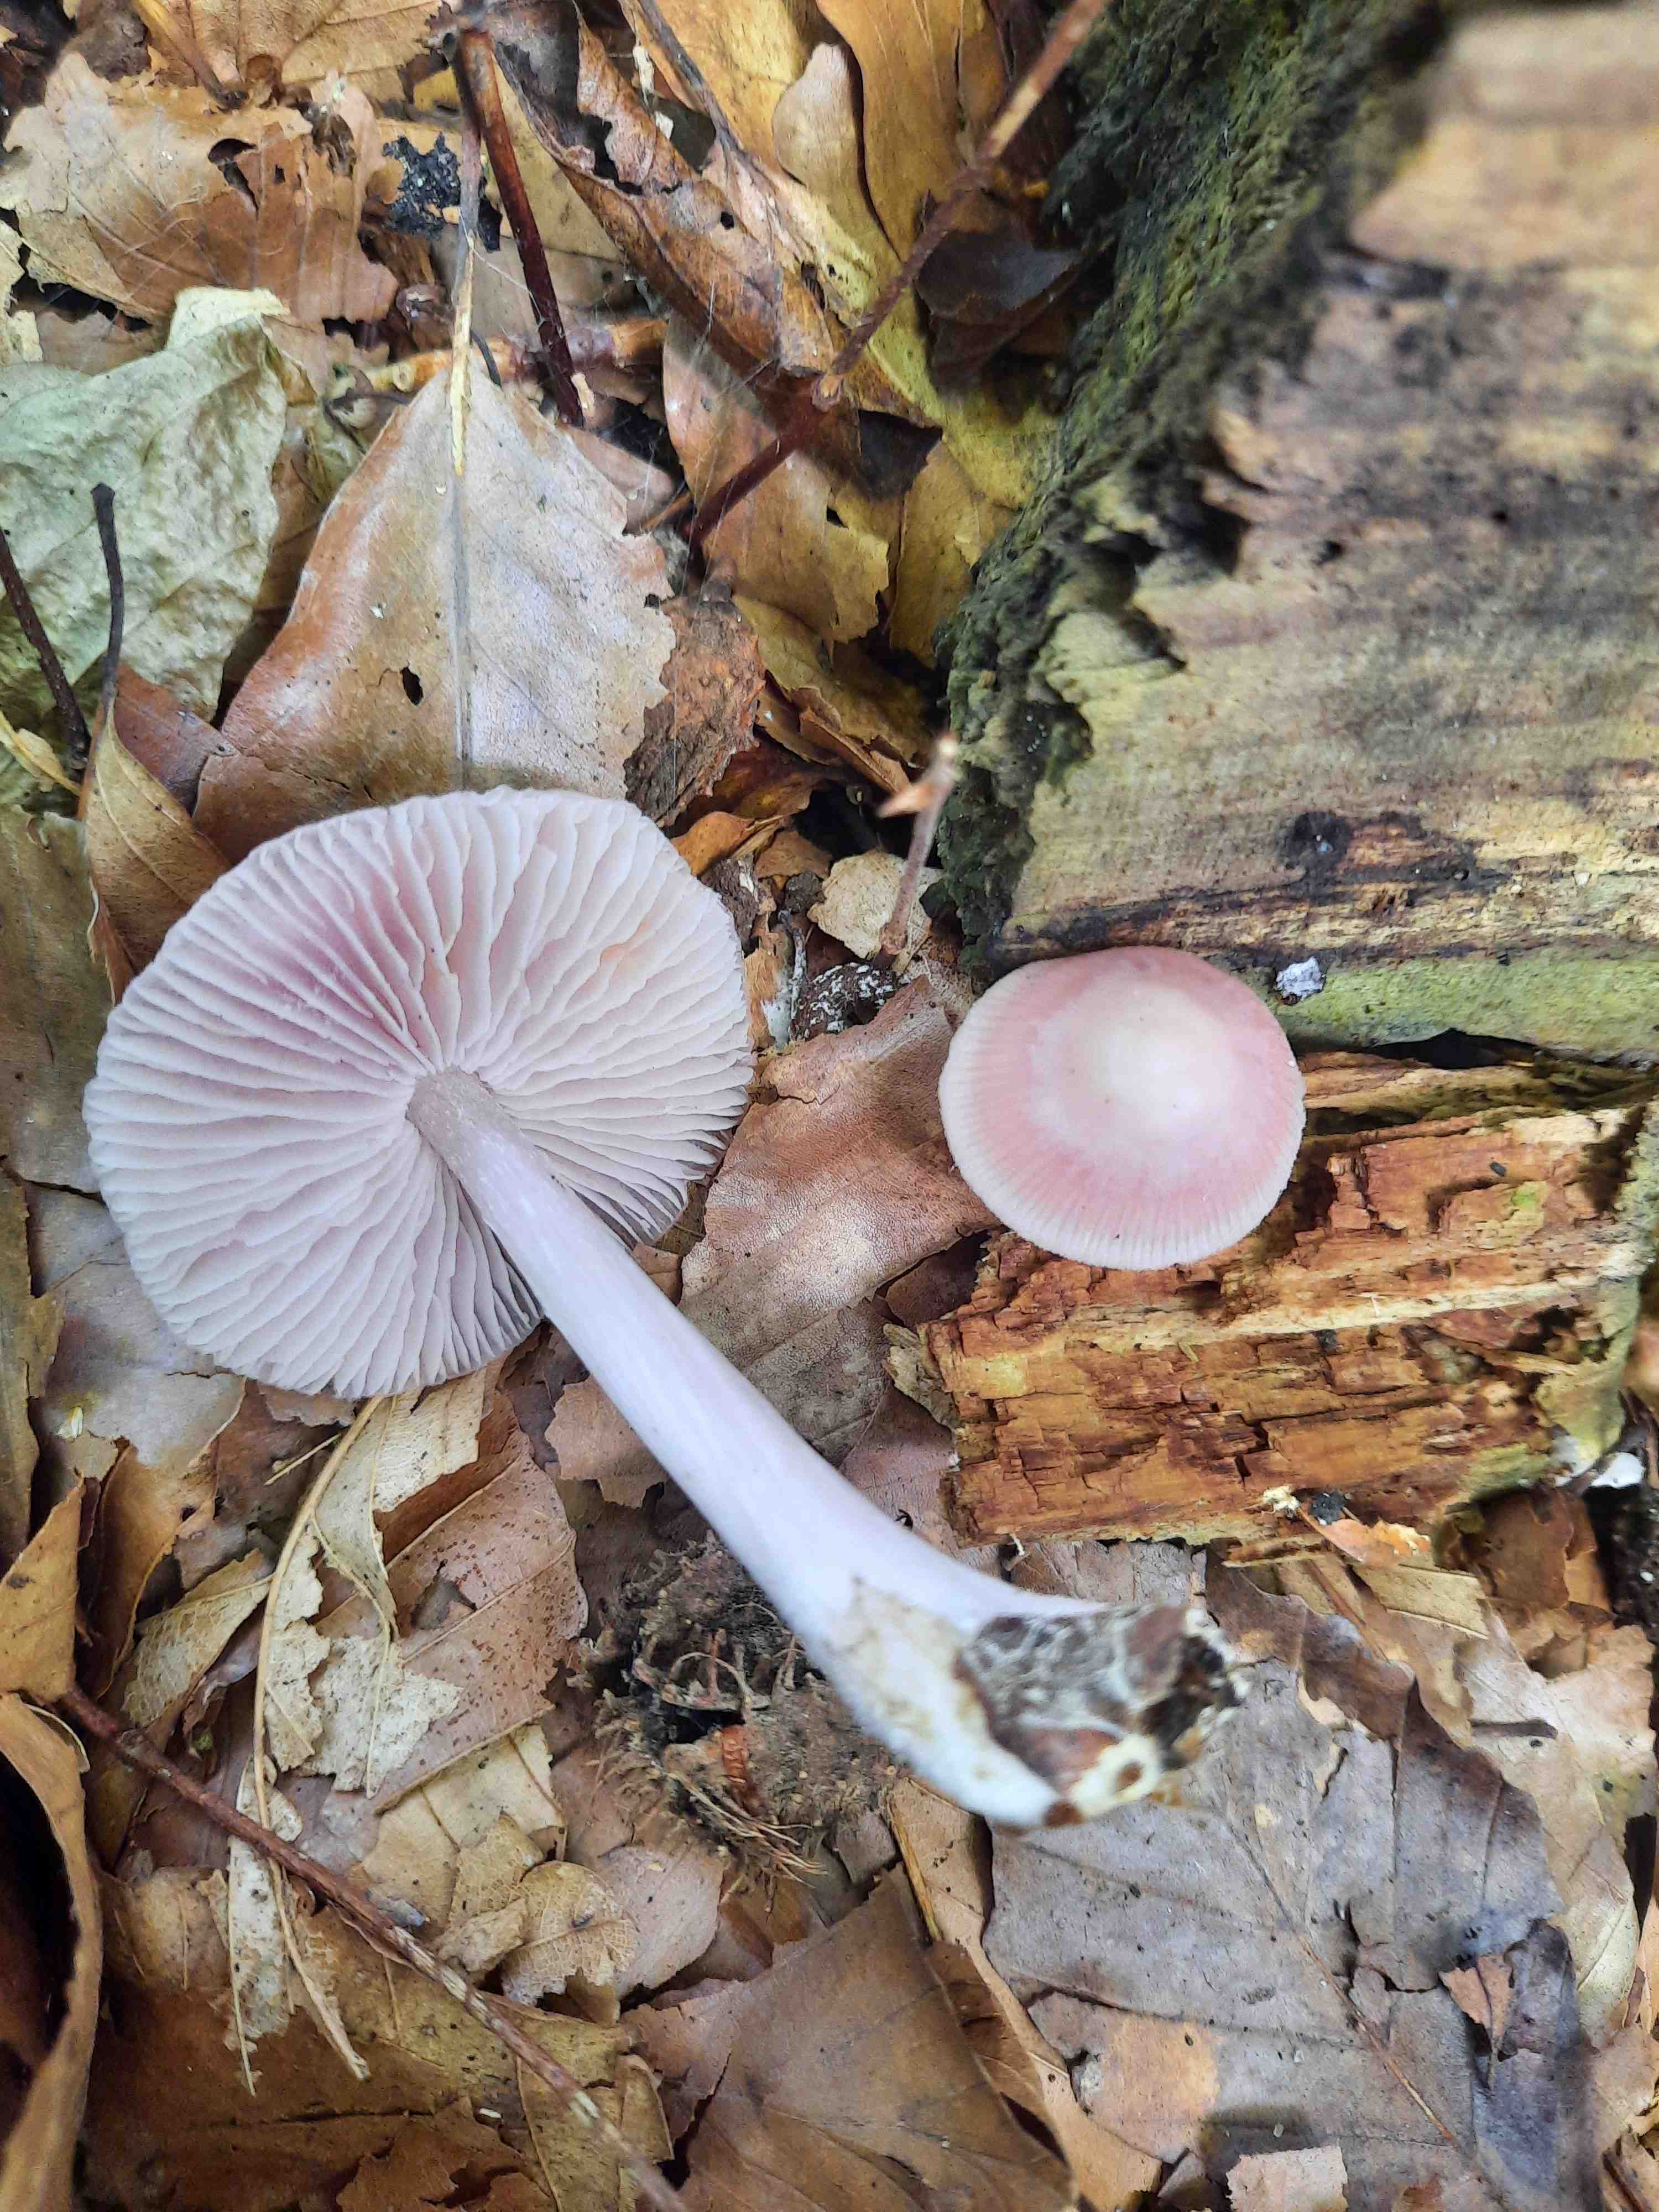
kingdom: Fungi
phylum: Basidiomycota
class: Agaricomycetes
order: Agaricales
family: Mycenaceae
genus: Mycena
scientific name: Mycena rosea
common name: rosa huesvamp
